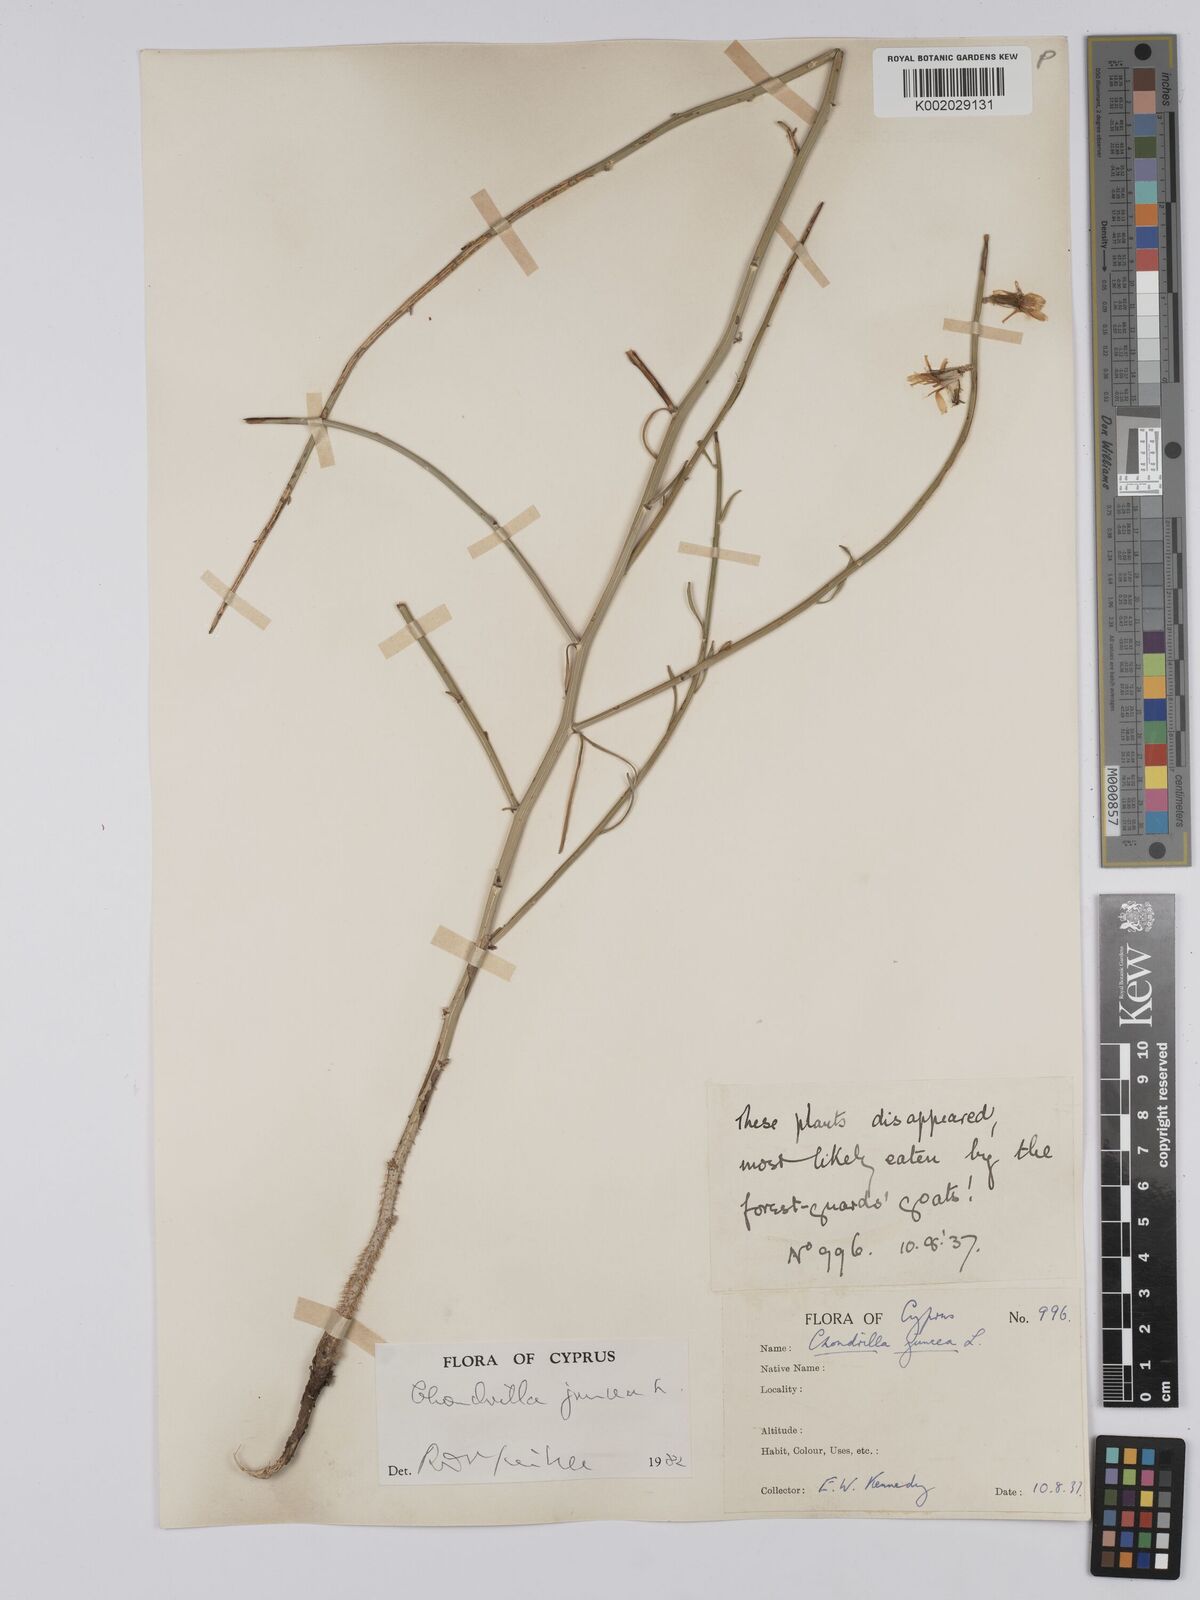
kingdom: Plantae
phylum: Tracheophyta
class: Magnoliopsida
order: Asterales
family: Asteraceae
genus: Chondrilla
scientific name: Chondrilla juncea
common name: Skeleton weed
